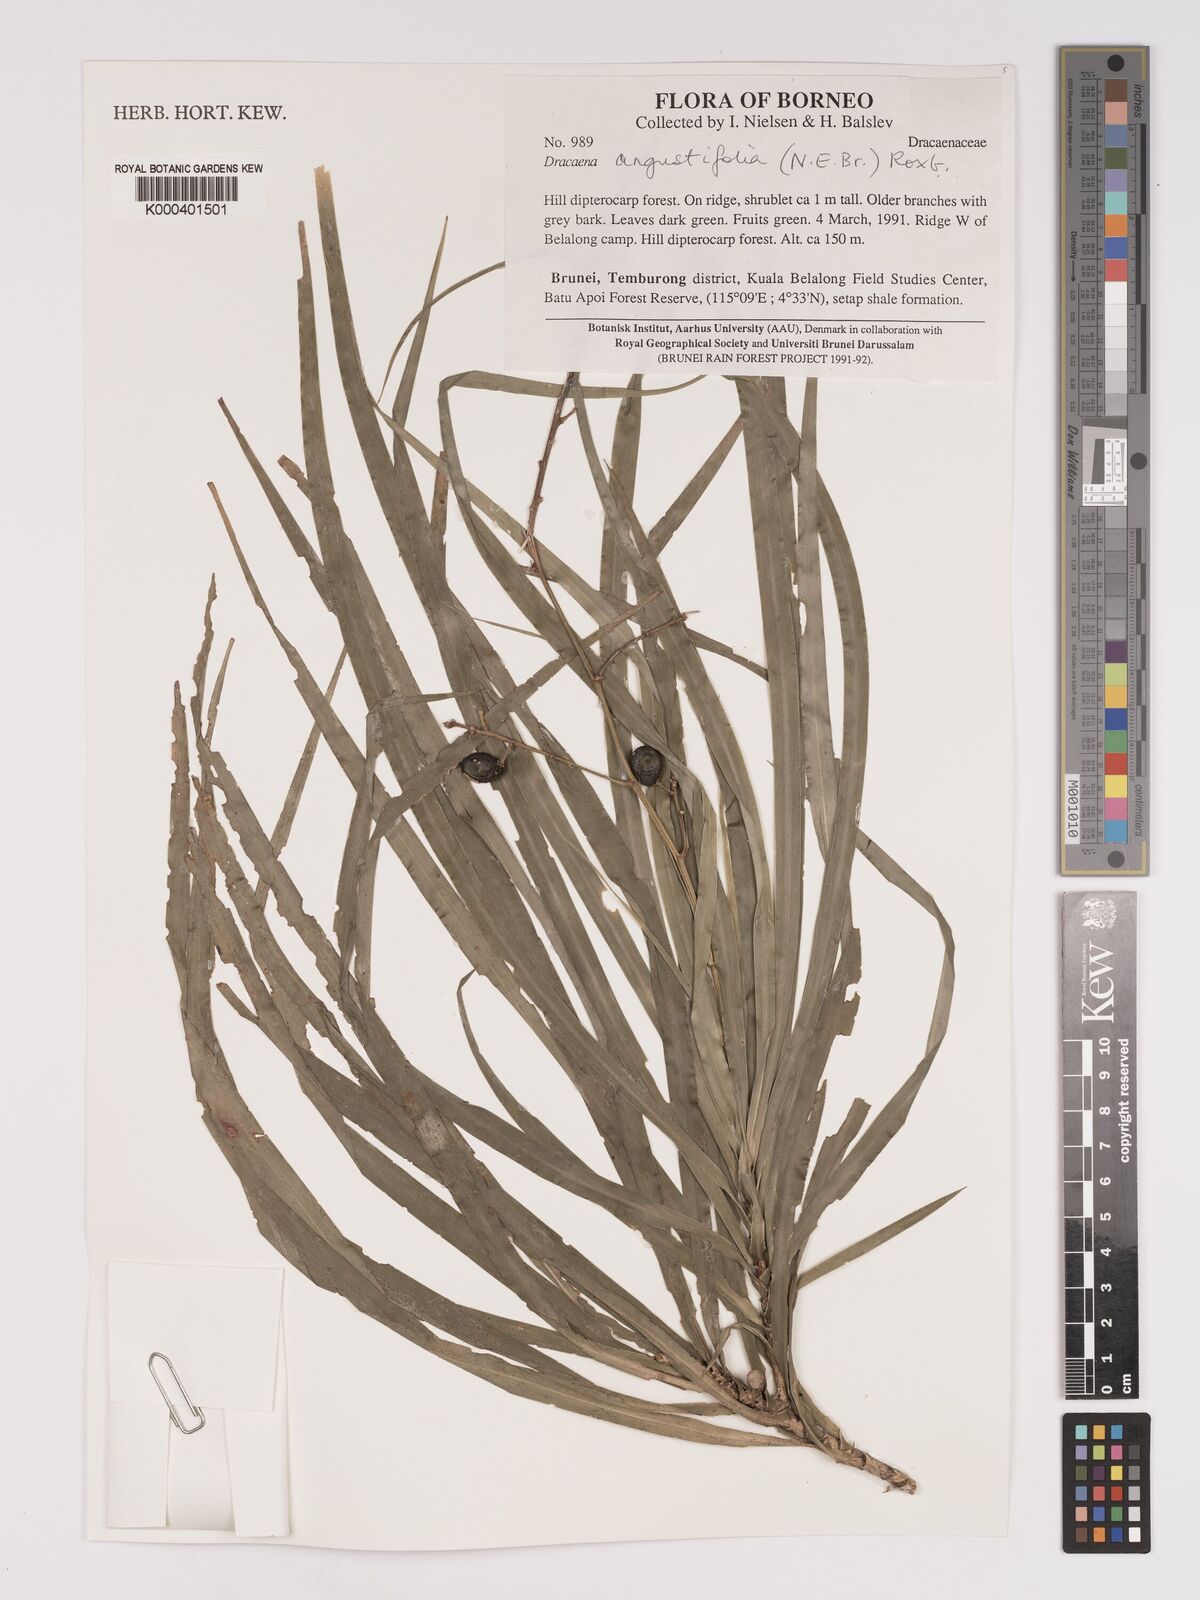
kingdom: Plantae
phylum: Tracheophyta
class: Liliopsida
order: Asparagales
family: Asparagaceae
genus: Dracaena
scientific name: Dracaena angustifolia
